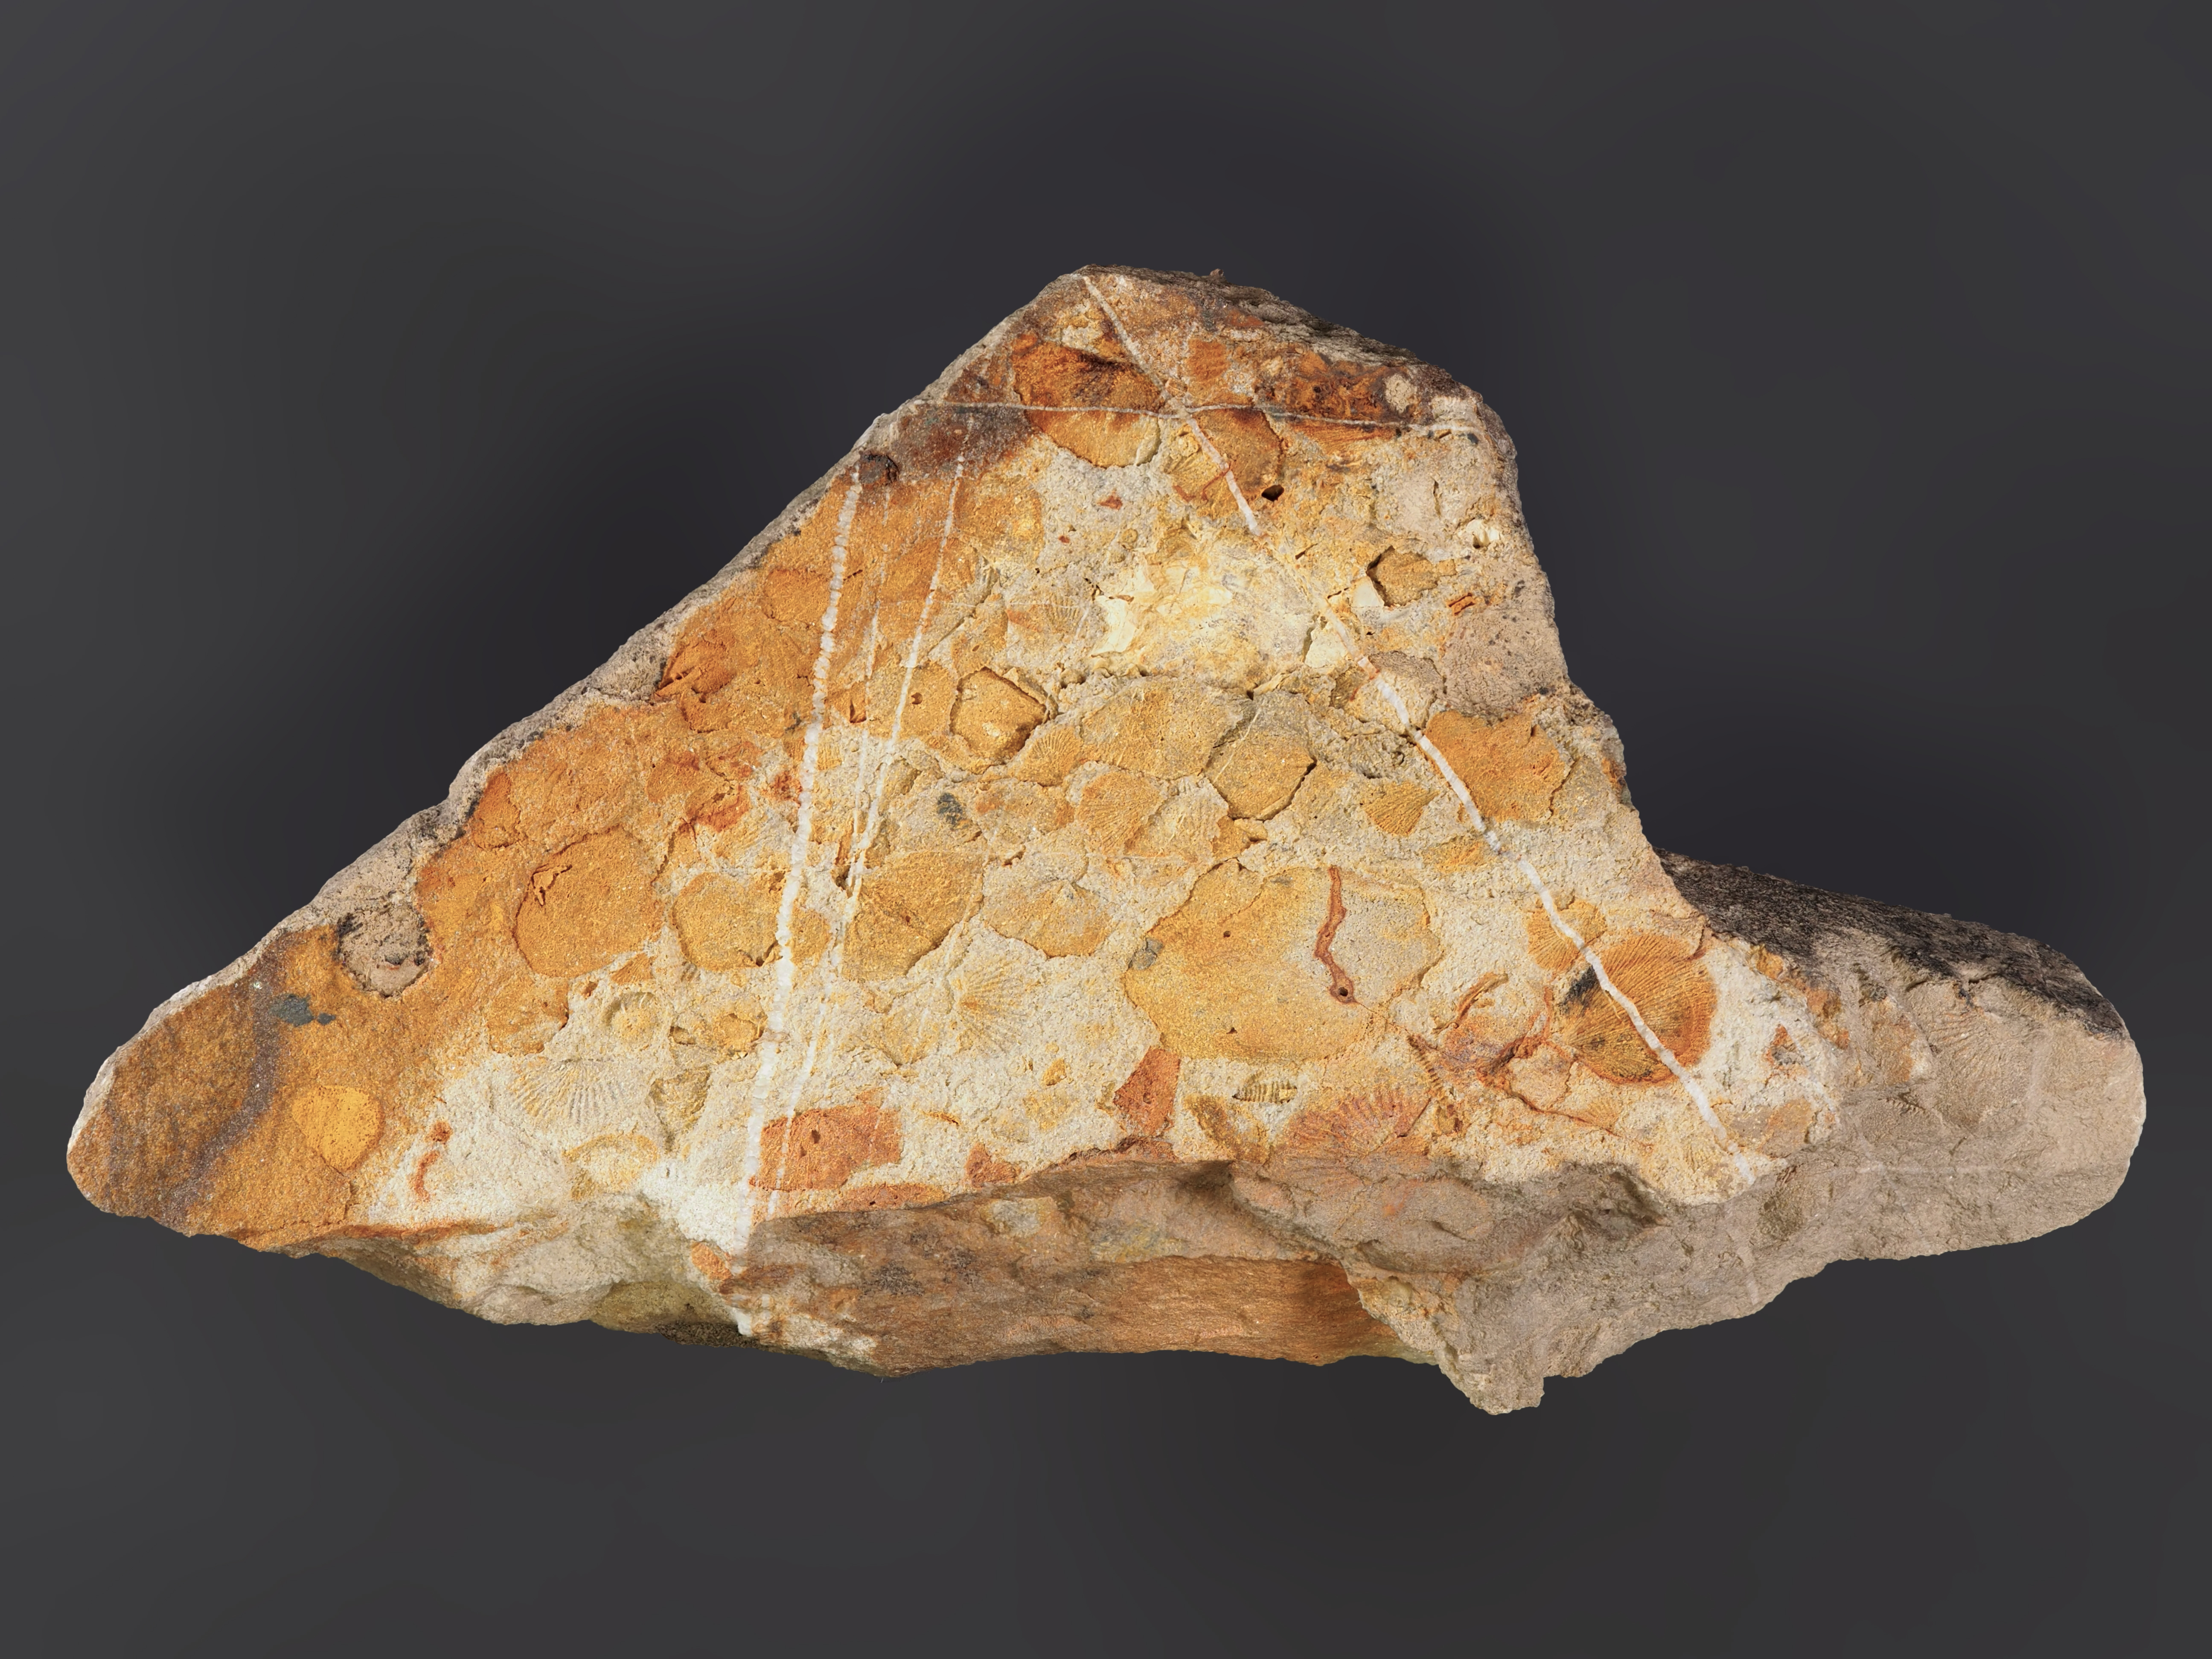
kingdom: Animalia
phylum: Brachiopoda
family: Chonetidae
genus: Plebejochonetes
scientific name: Plebejochonetes
